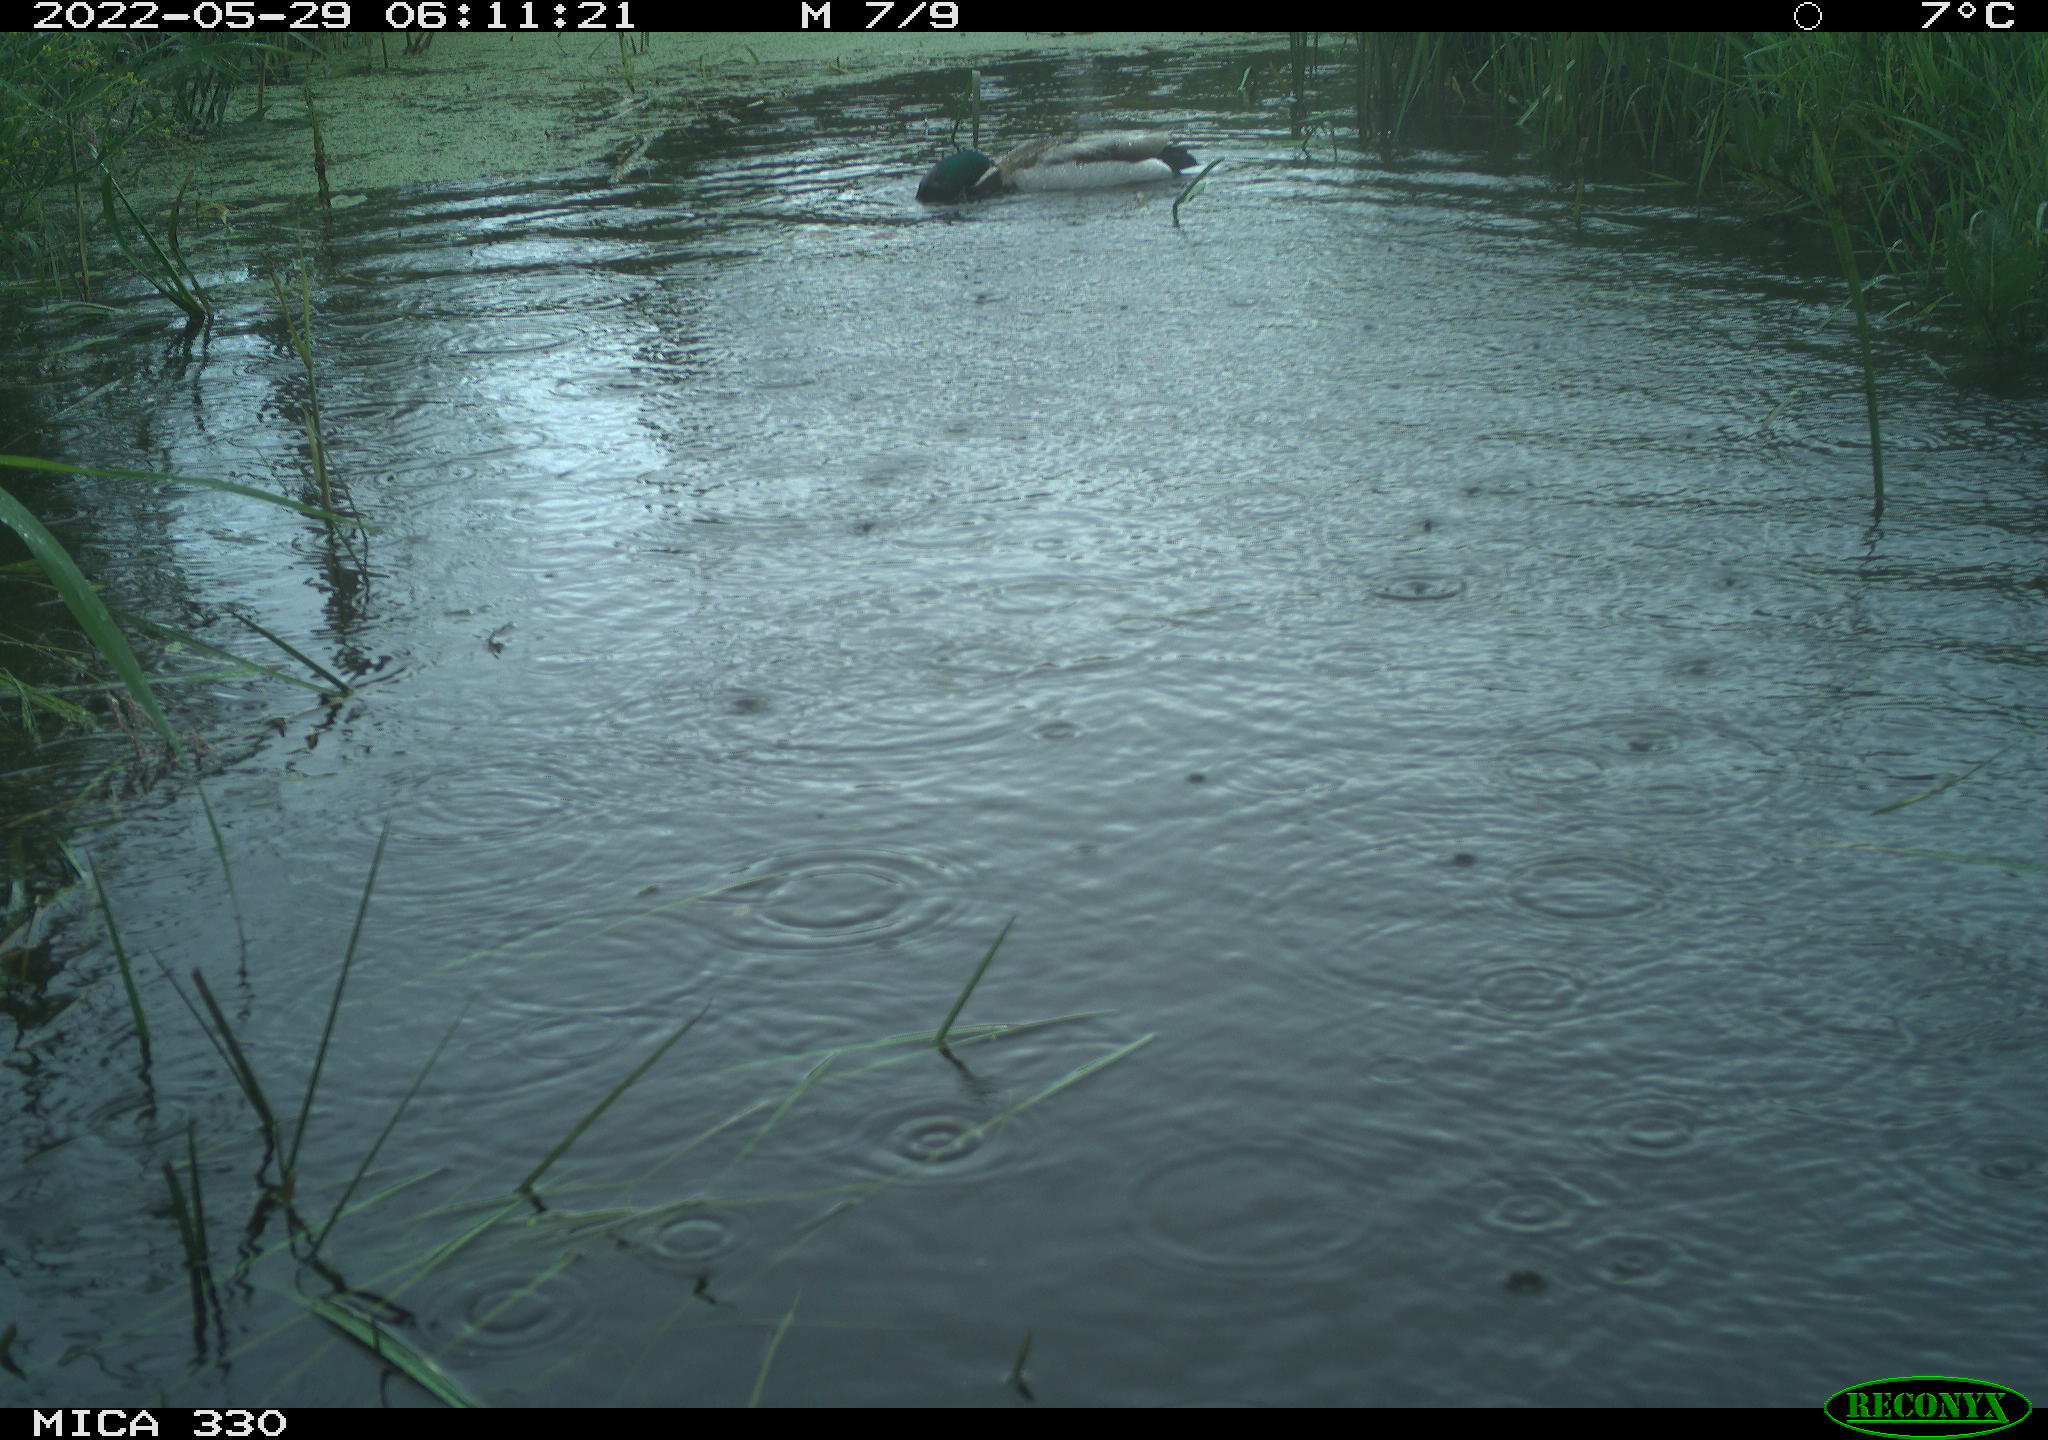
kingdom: Animalia
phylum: Chordata
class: Aves
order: Anseriformes
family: Anatidae
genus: Anas
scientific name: Anas platyrhynchos
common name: Mallard
